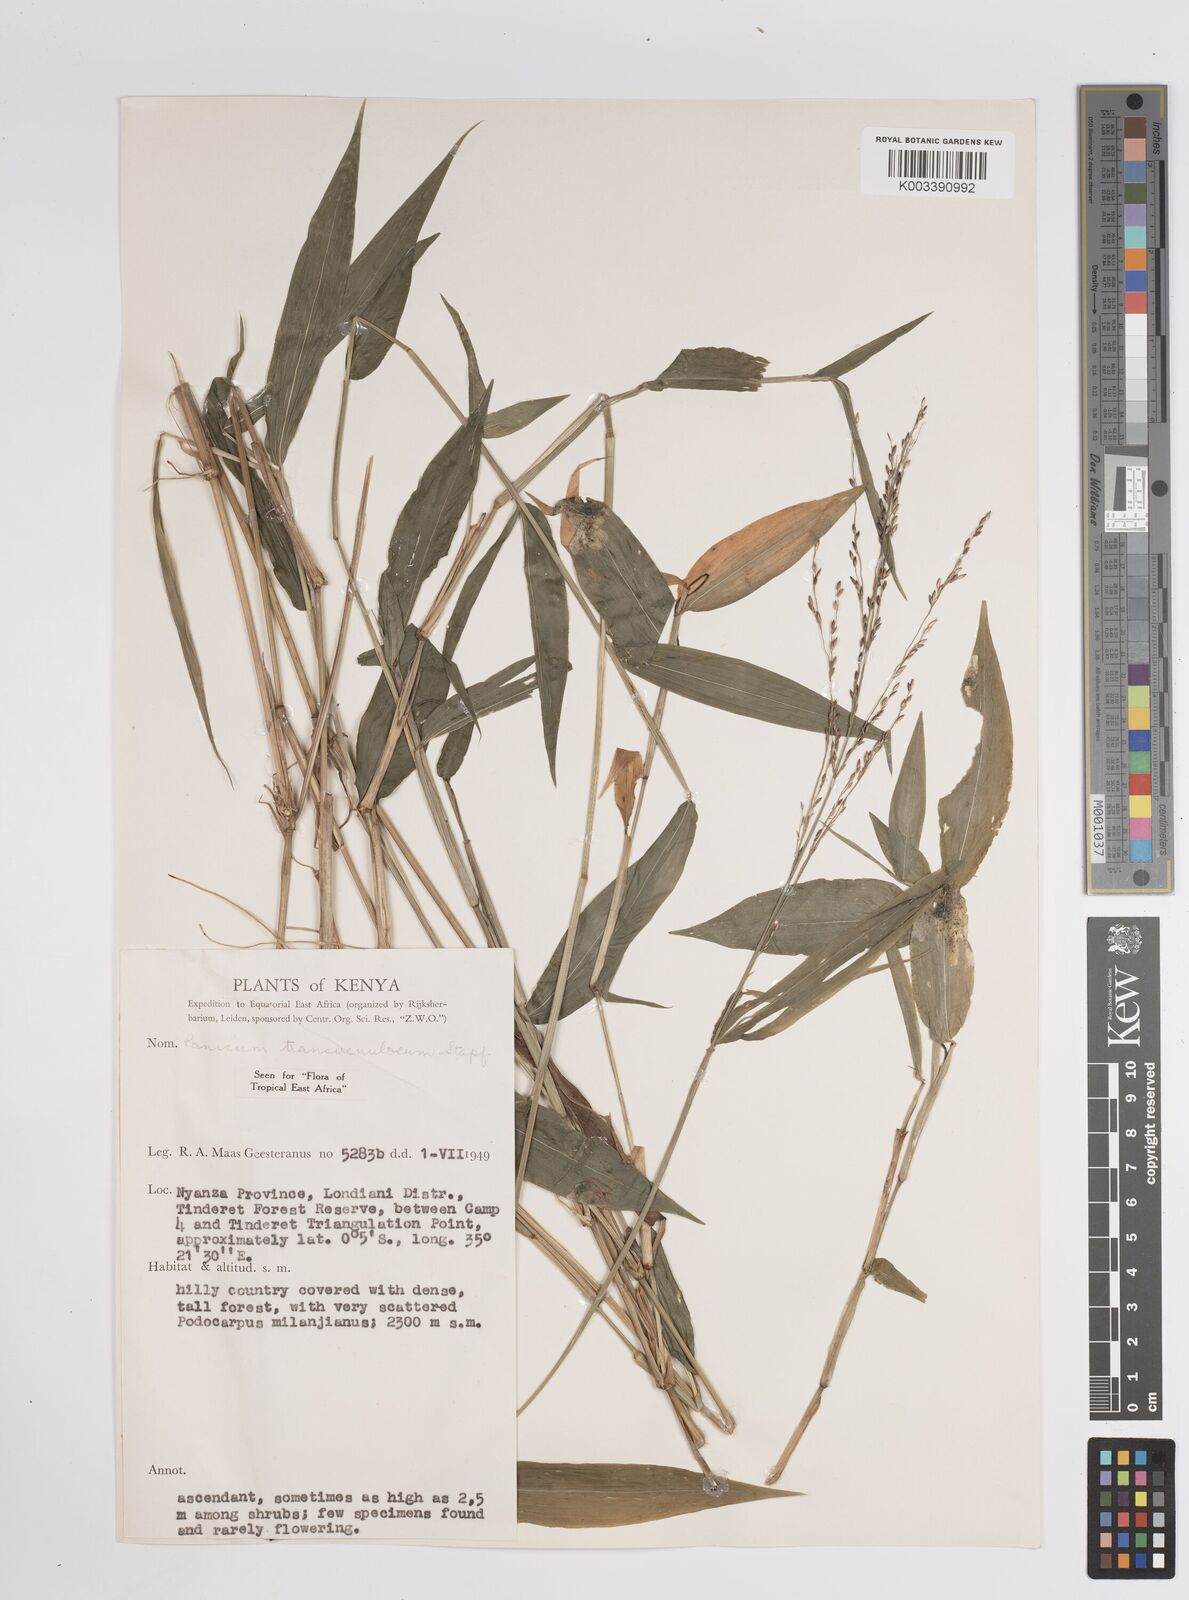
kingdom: Plantae
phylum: Tracheophyta
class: Liliopsida
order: Poales
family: Poaceae
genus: Panicum
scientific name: Panicum monticola
